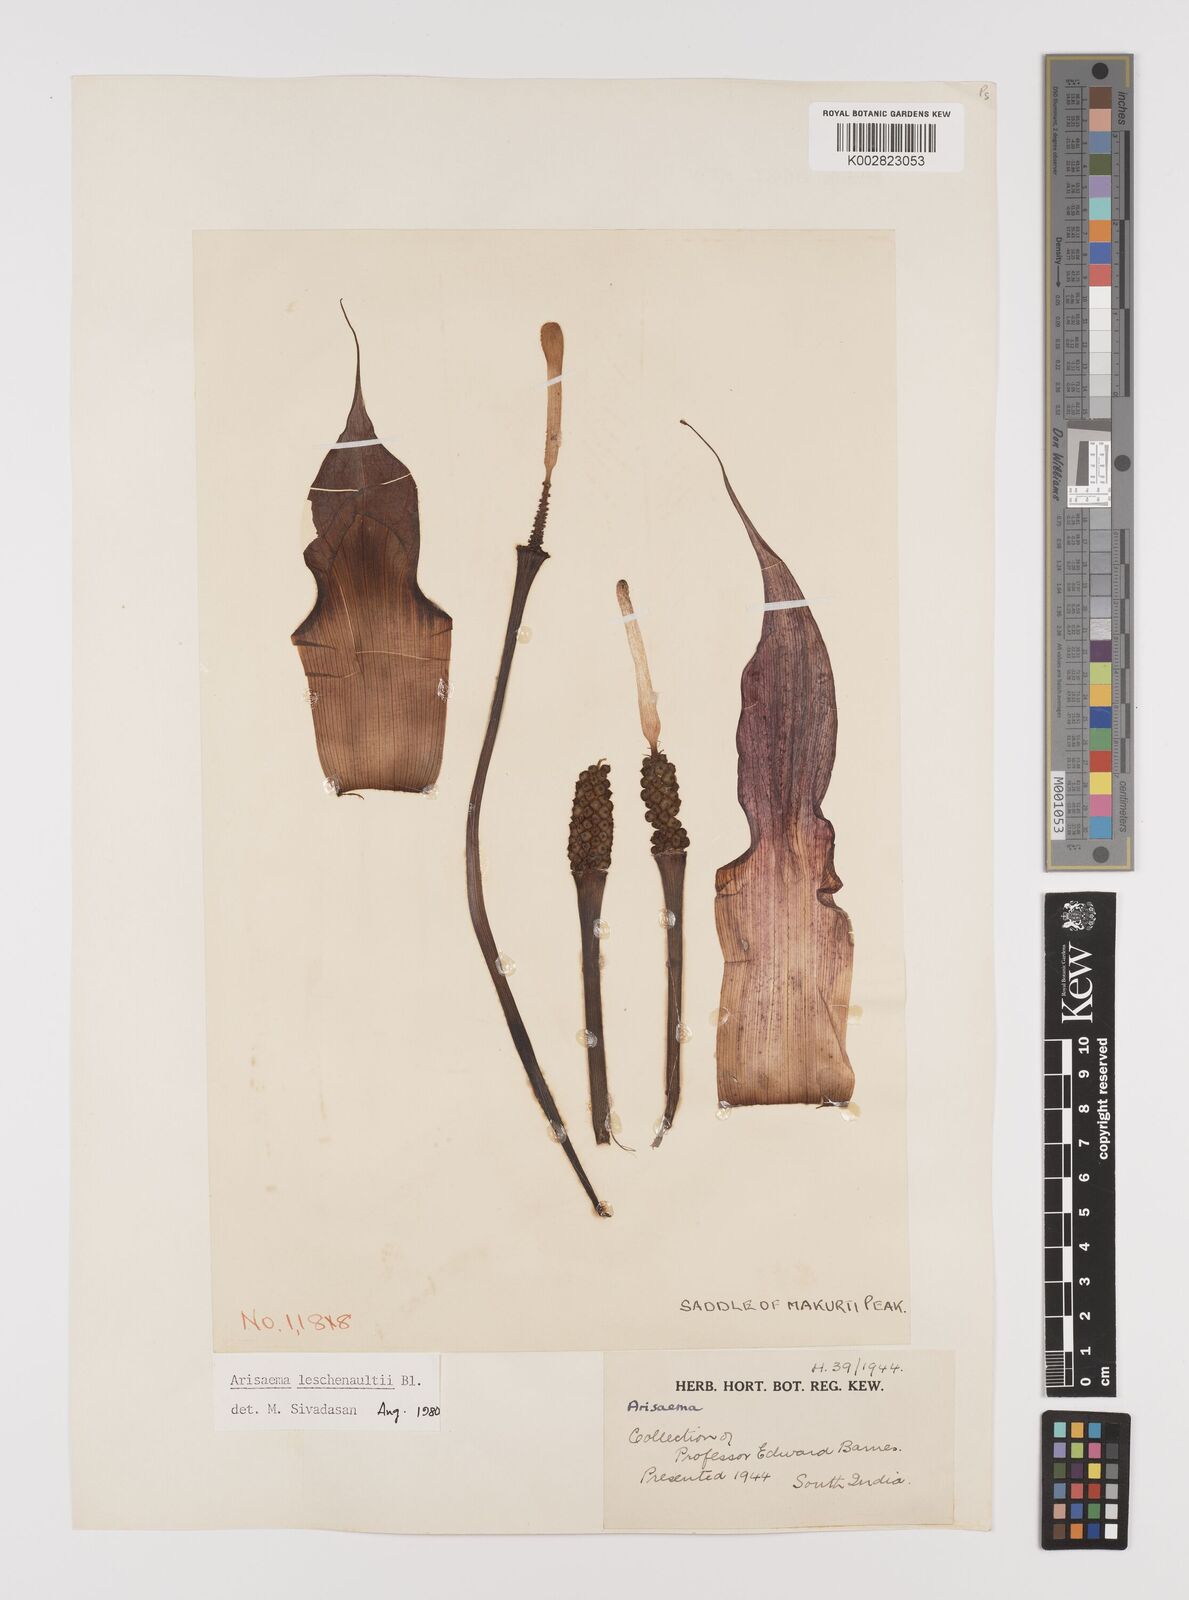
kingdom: Plantae
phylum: Tracheophyta
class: Liliopsida
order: Alismatales
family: Araceae
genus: Arisaema
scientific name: Arisaema leschenaultii
